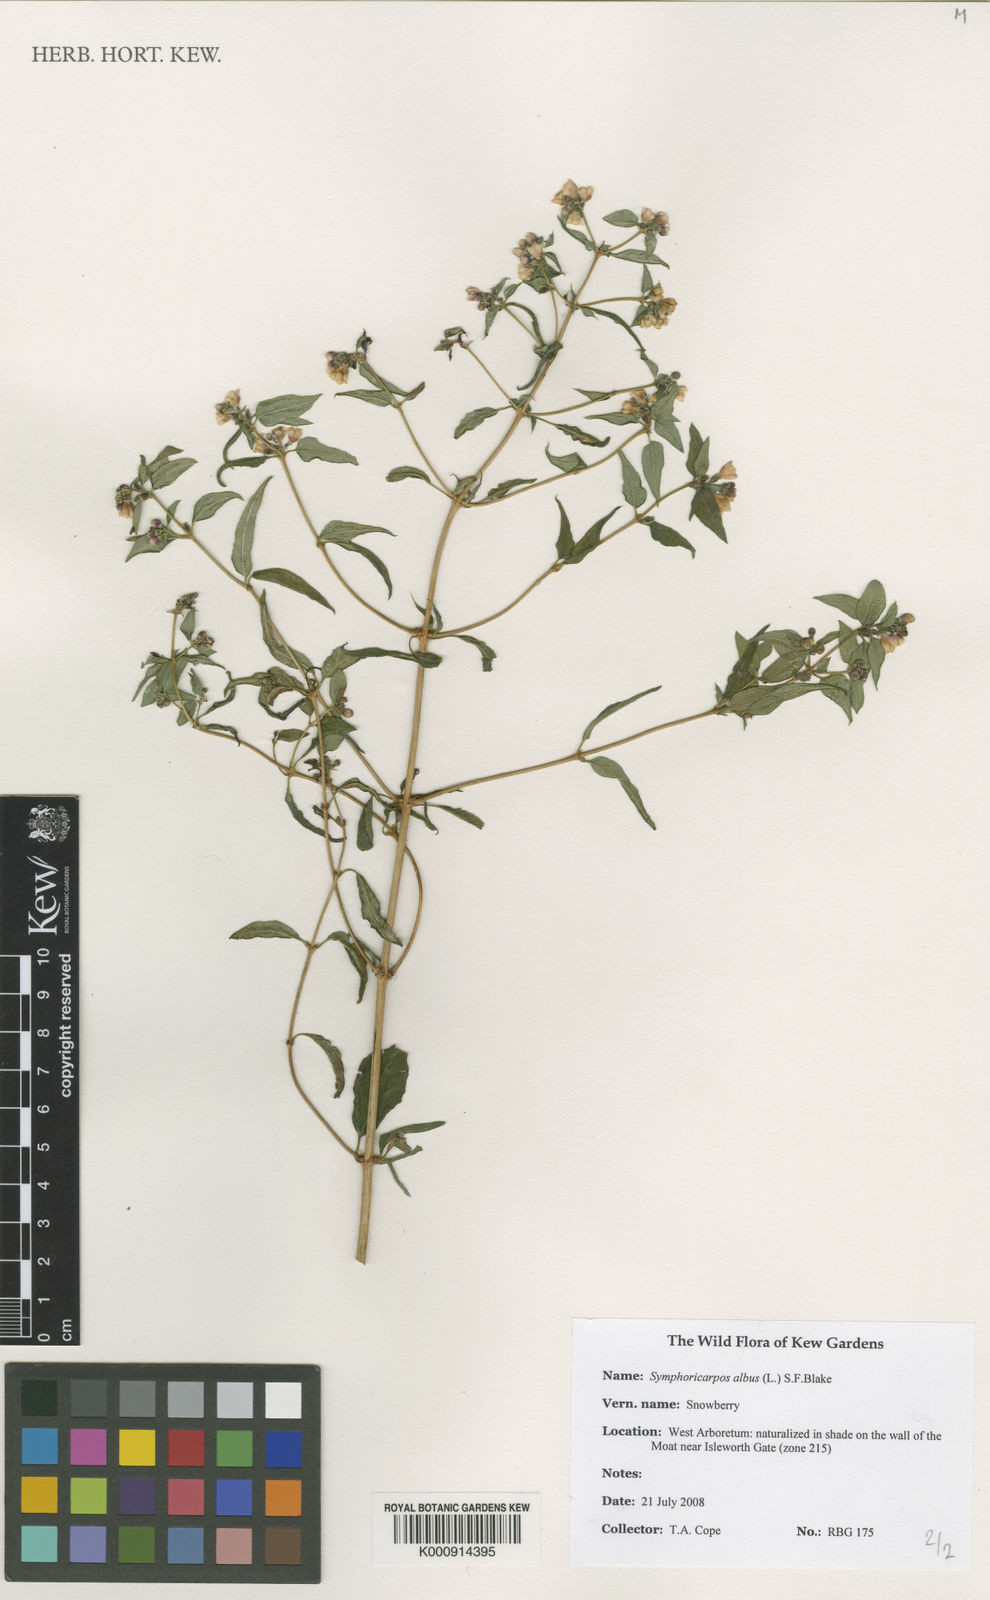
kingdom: Plantae
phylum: Tracheophyta
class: Magnoliopsida
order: Dipsacales
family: Caprifoliaceae
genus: Symphoricarpos
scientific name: Symphoricarpos albus
